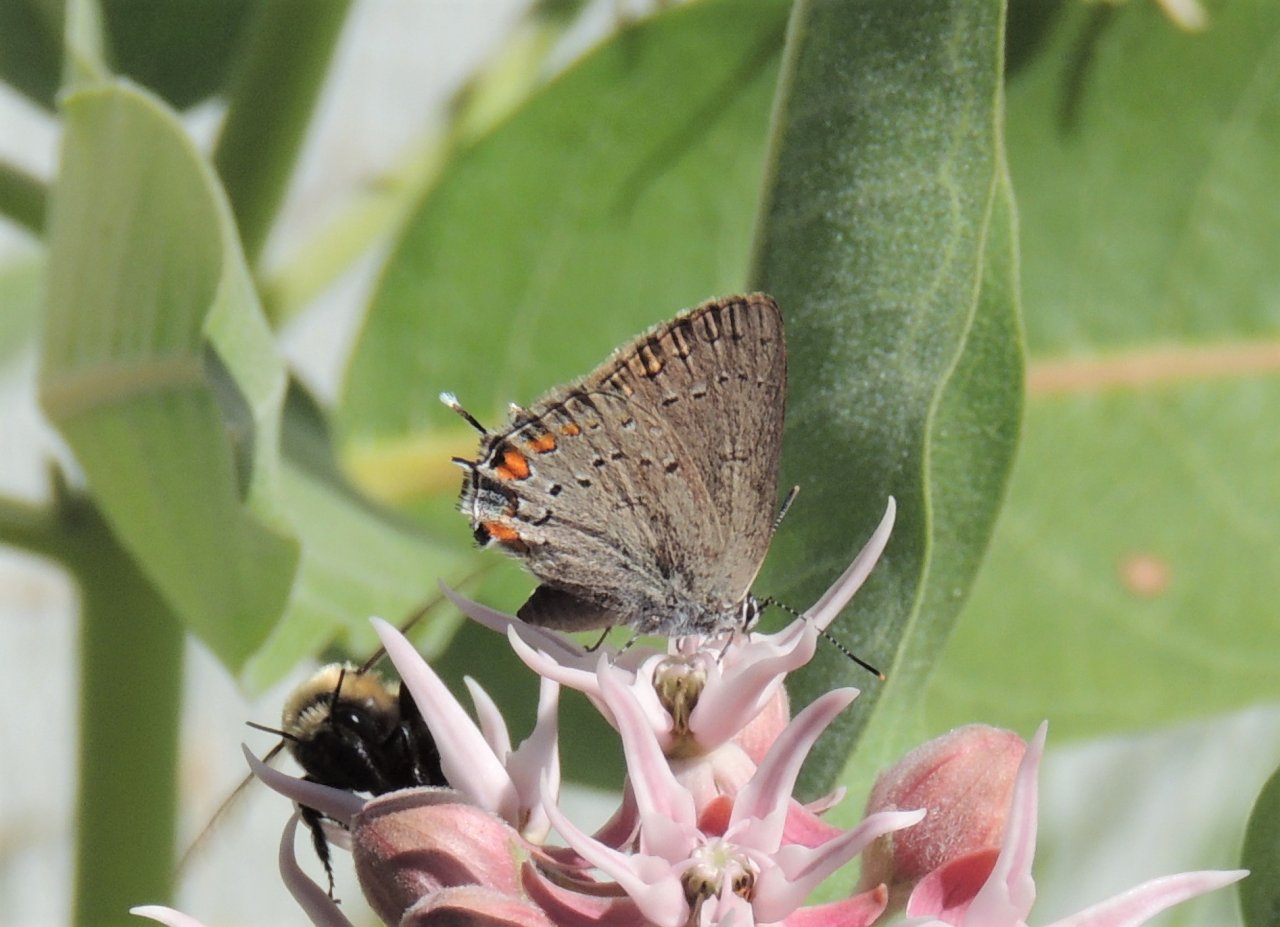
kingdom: Animalia
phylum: Arthropoda
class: Insecta
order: Lepidoptera
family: Lycaenidae
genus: Strymon
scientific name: Strymon acadica
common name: California Hairstreak
